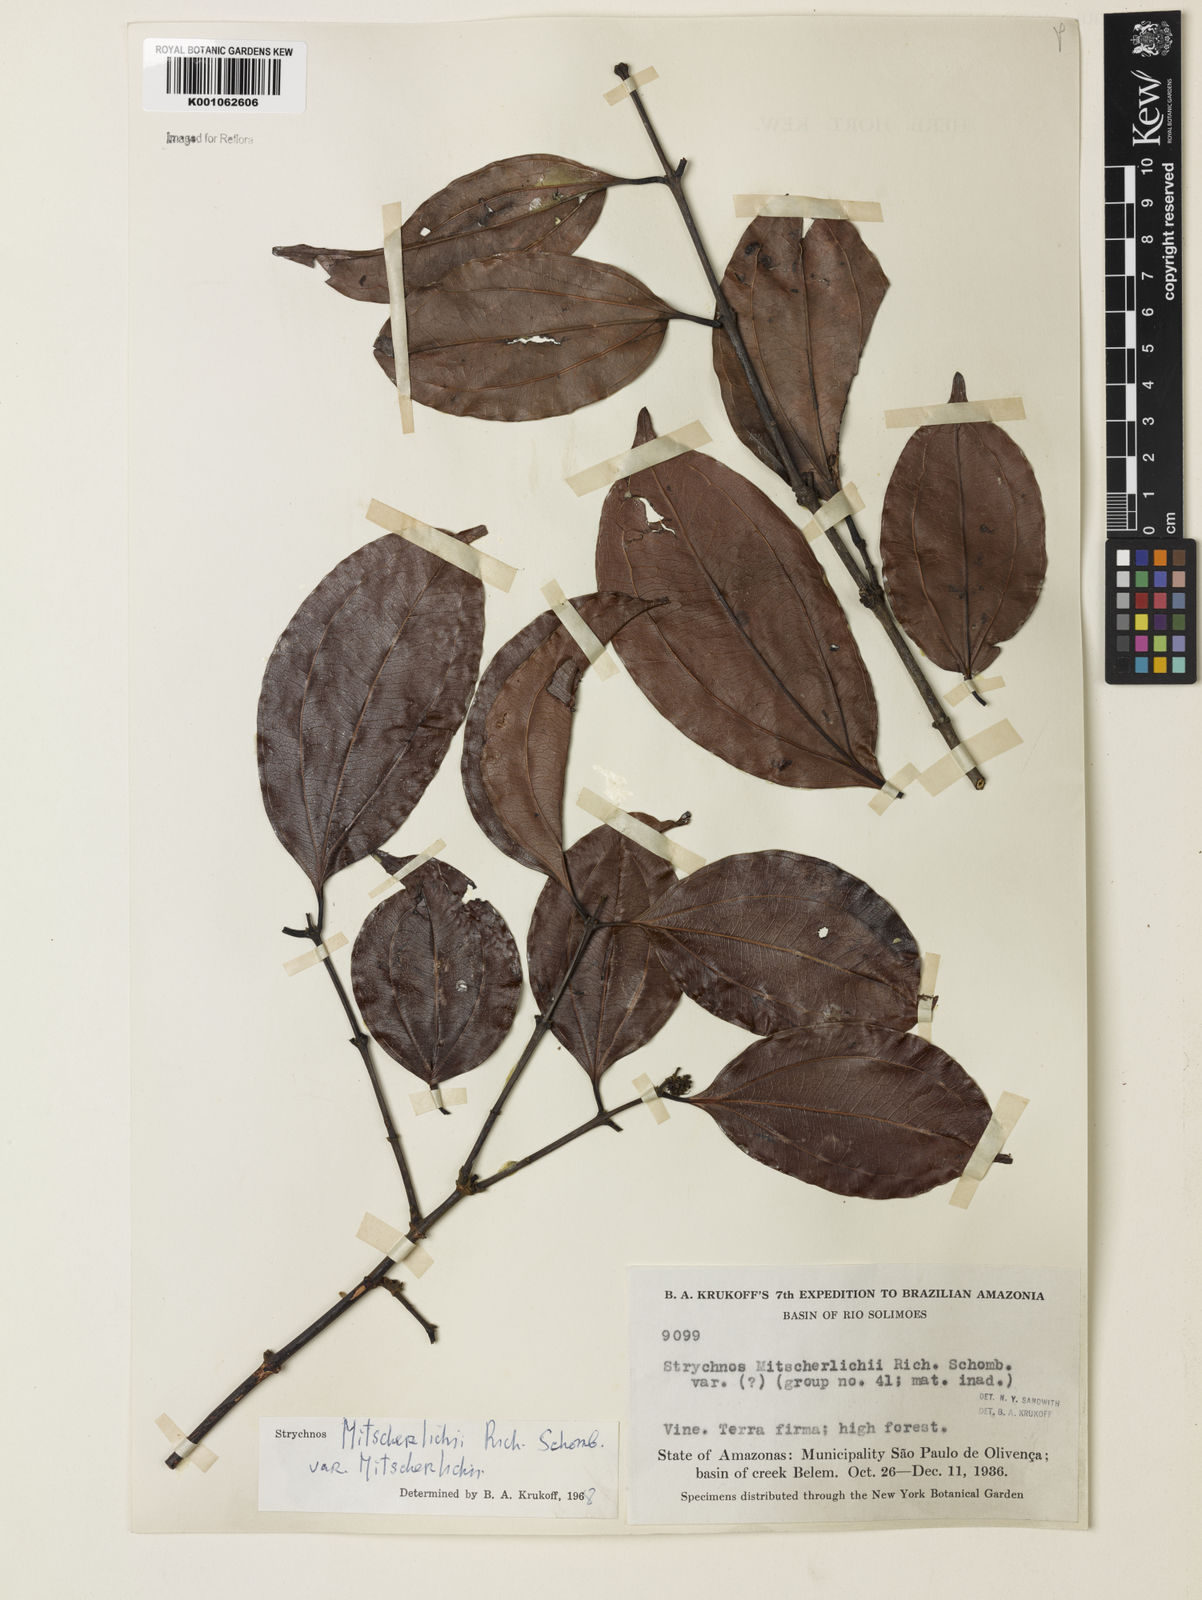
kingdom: Plantae
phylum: Tracheophyta
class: Magnoliopsida
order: Gentianales
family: Loganiaceae
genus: Strychnos
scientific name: Strychnos mitscherlichii
